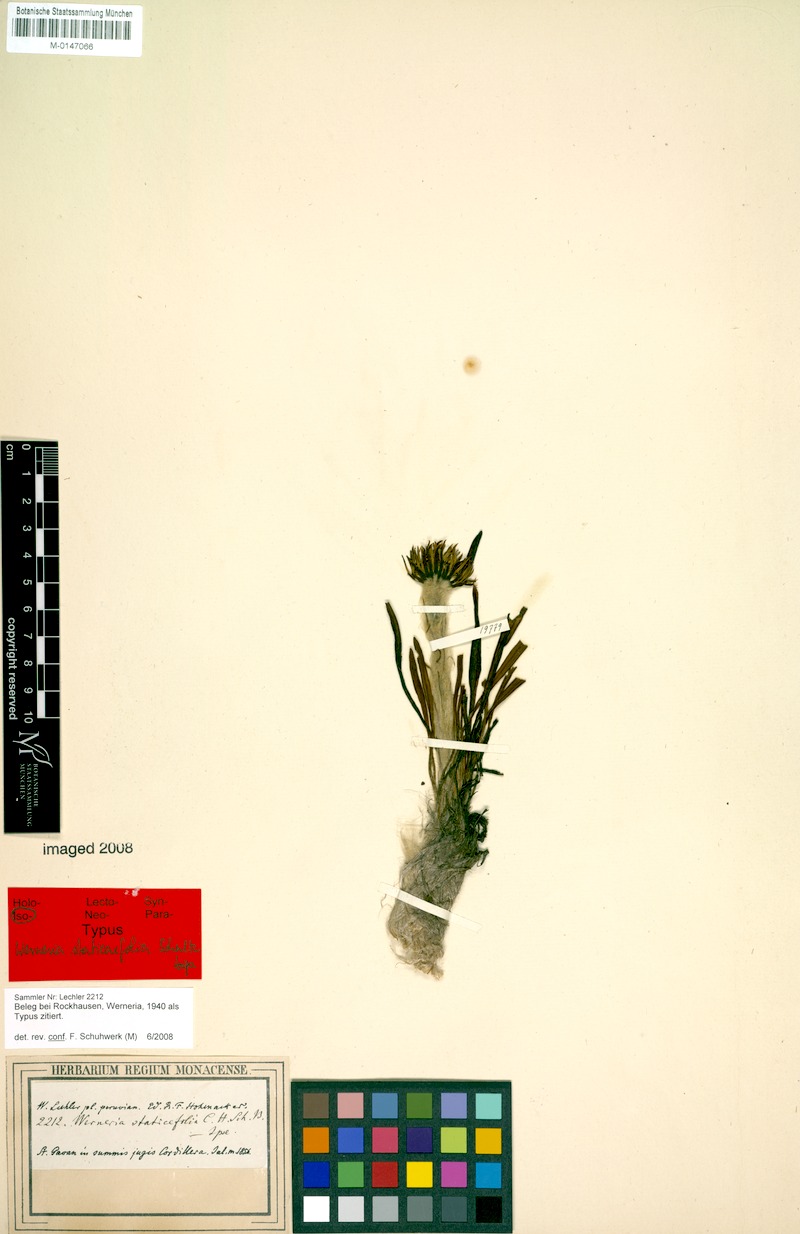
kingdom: Plantae
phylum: Tracheophyta
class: Magnoliopsida
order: Asterales
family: Asteraceae
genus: Rockhausenia
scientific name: Rockhausenia staticifolia
